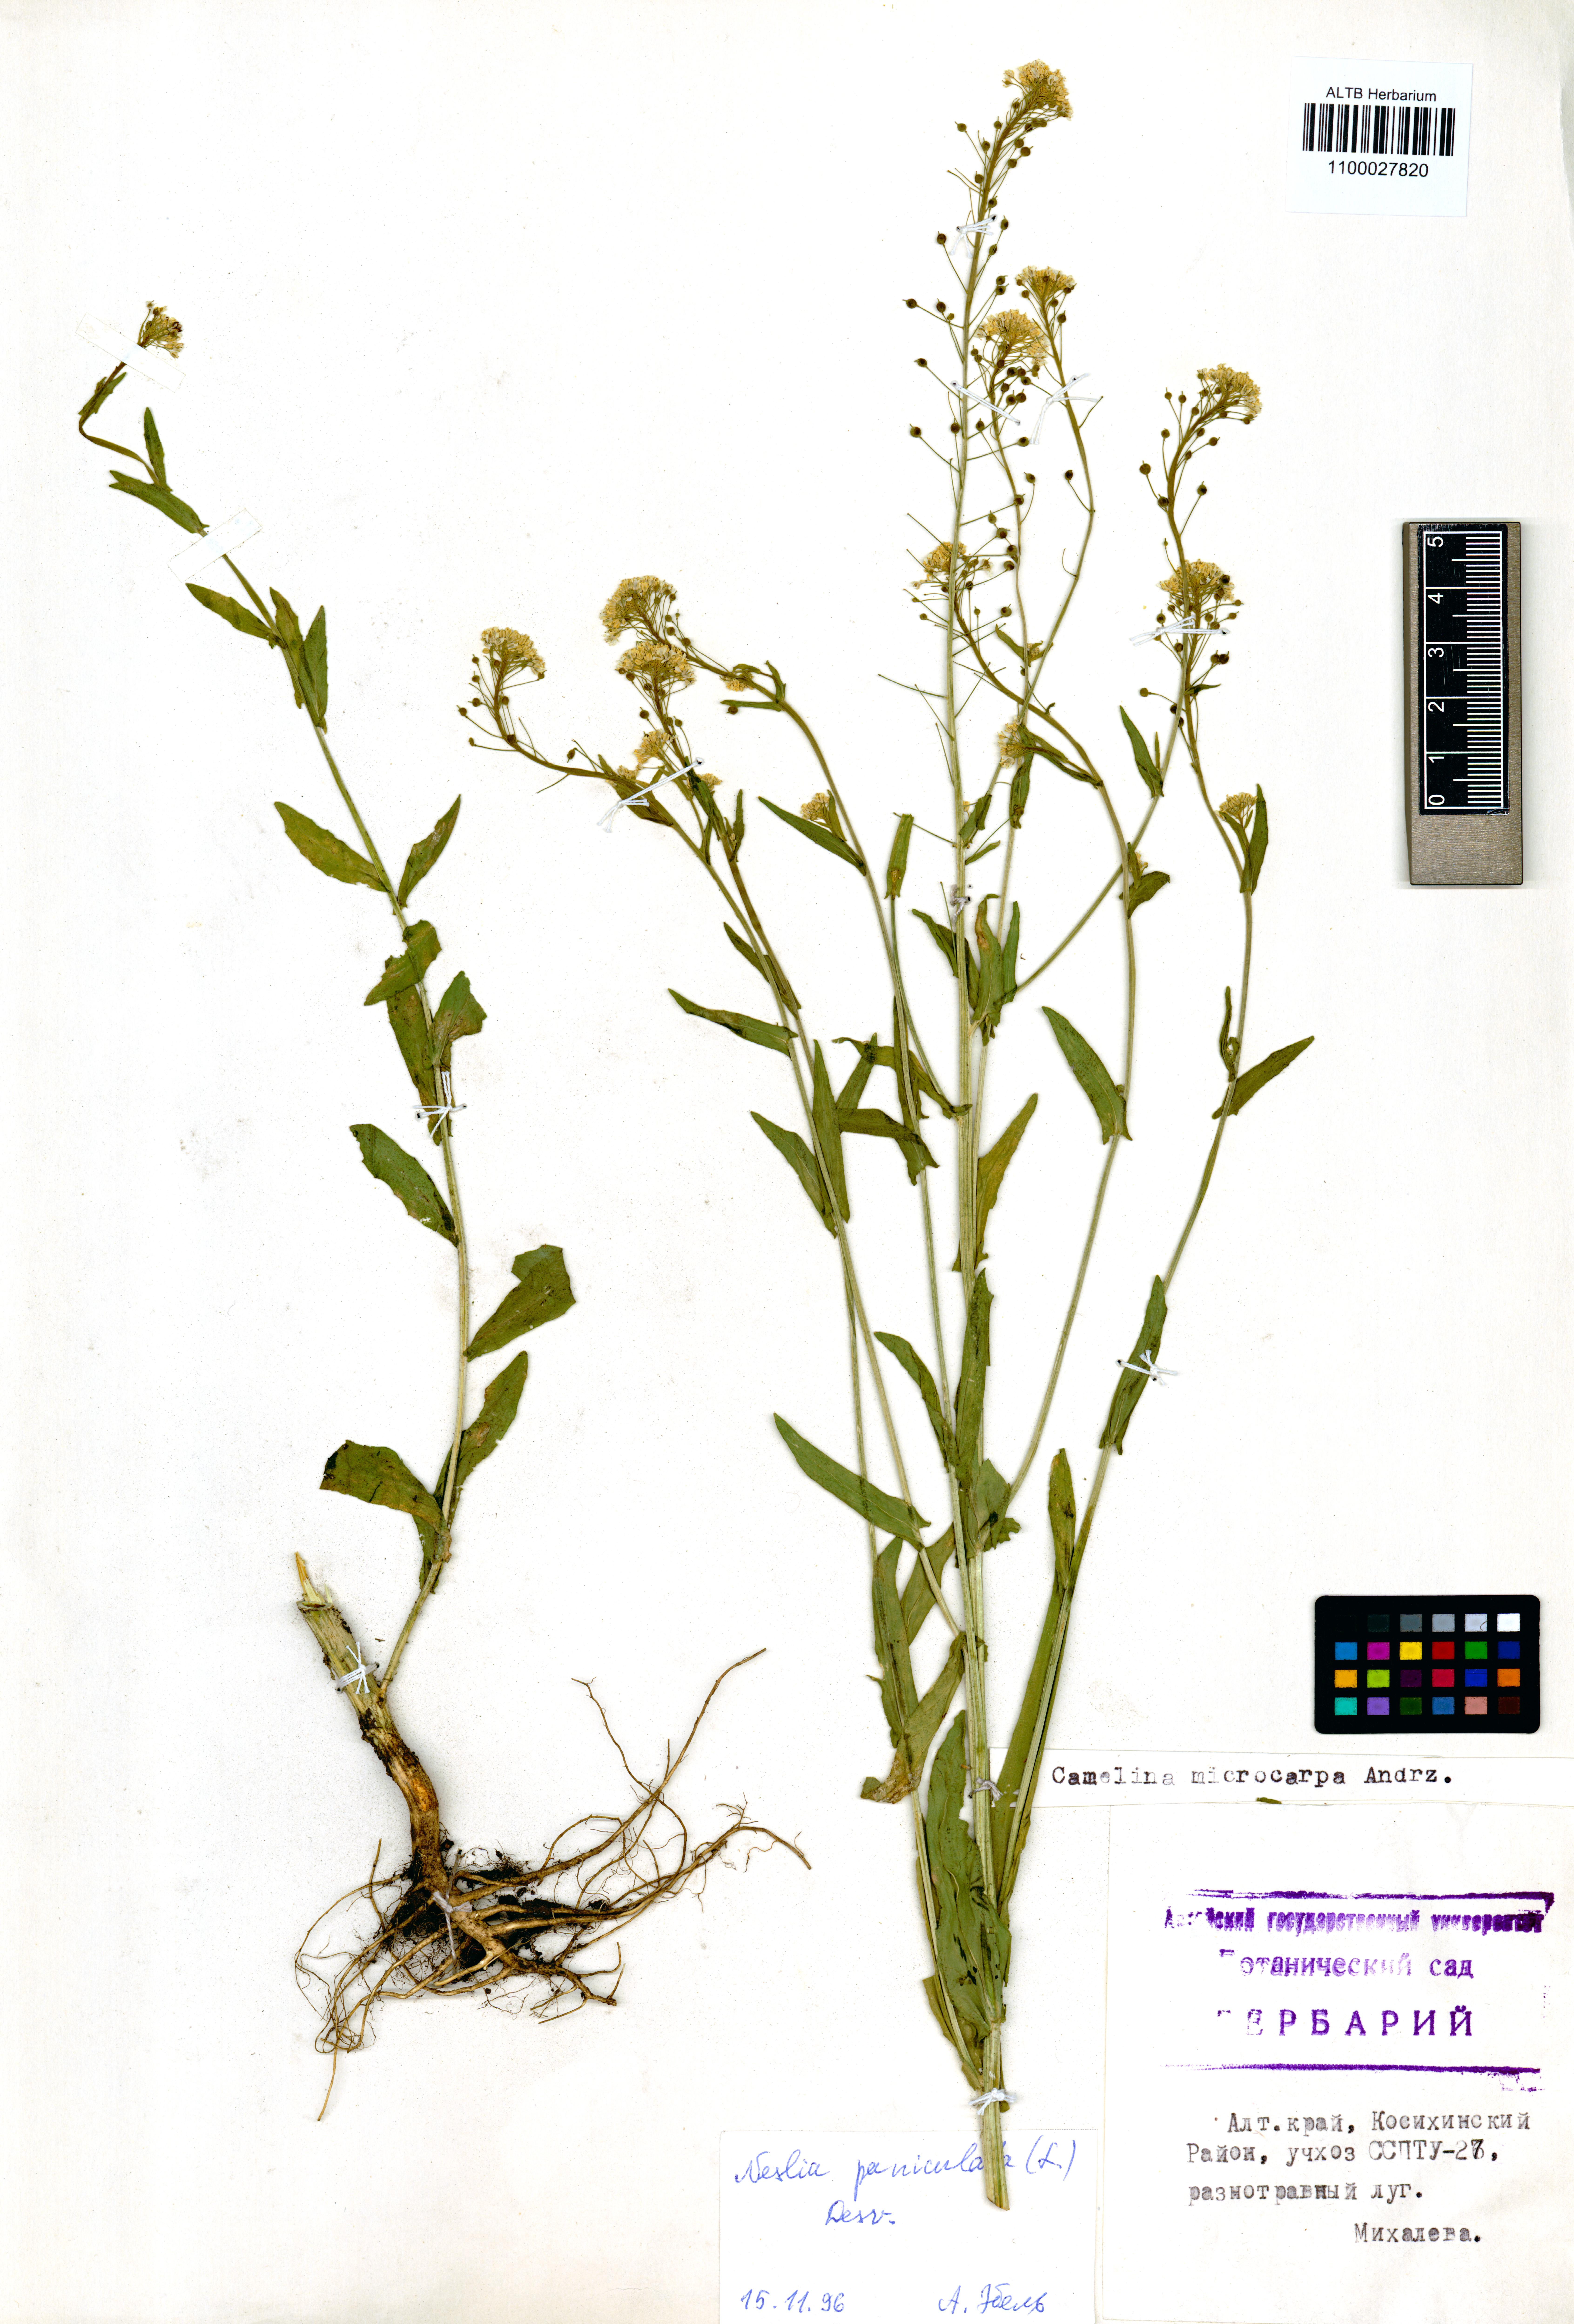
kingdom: Plantae
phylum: Tracheophyta
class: Magnoliopsida
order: Brassicales
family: Brassicaceae
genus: Neslia
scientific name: Neslia paniculata
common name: Ball mustard
